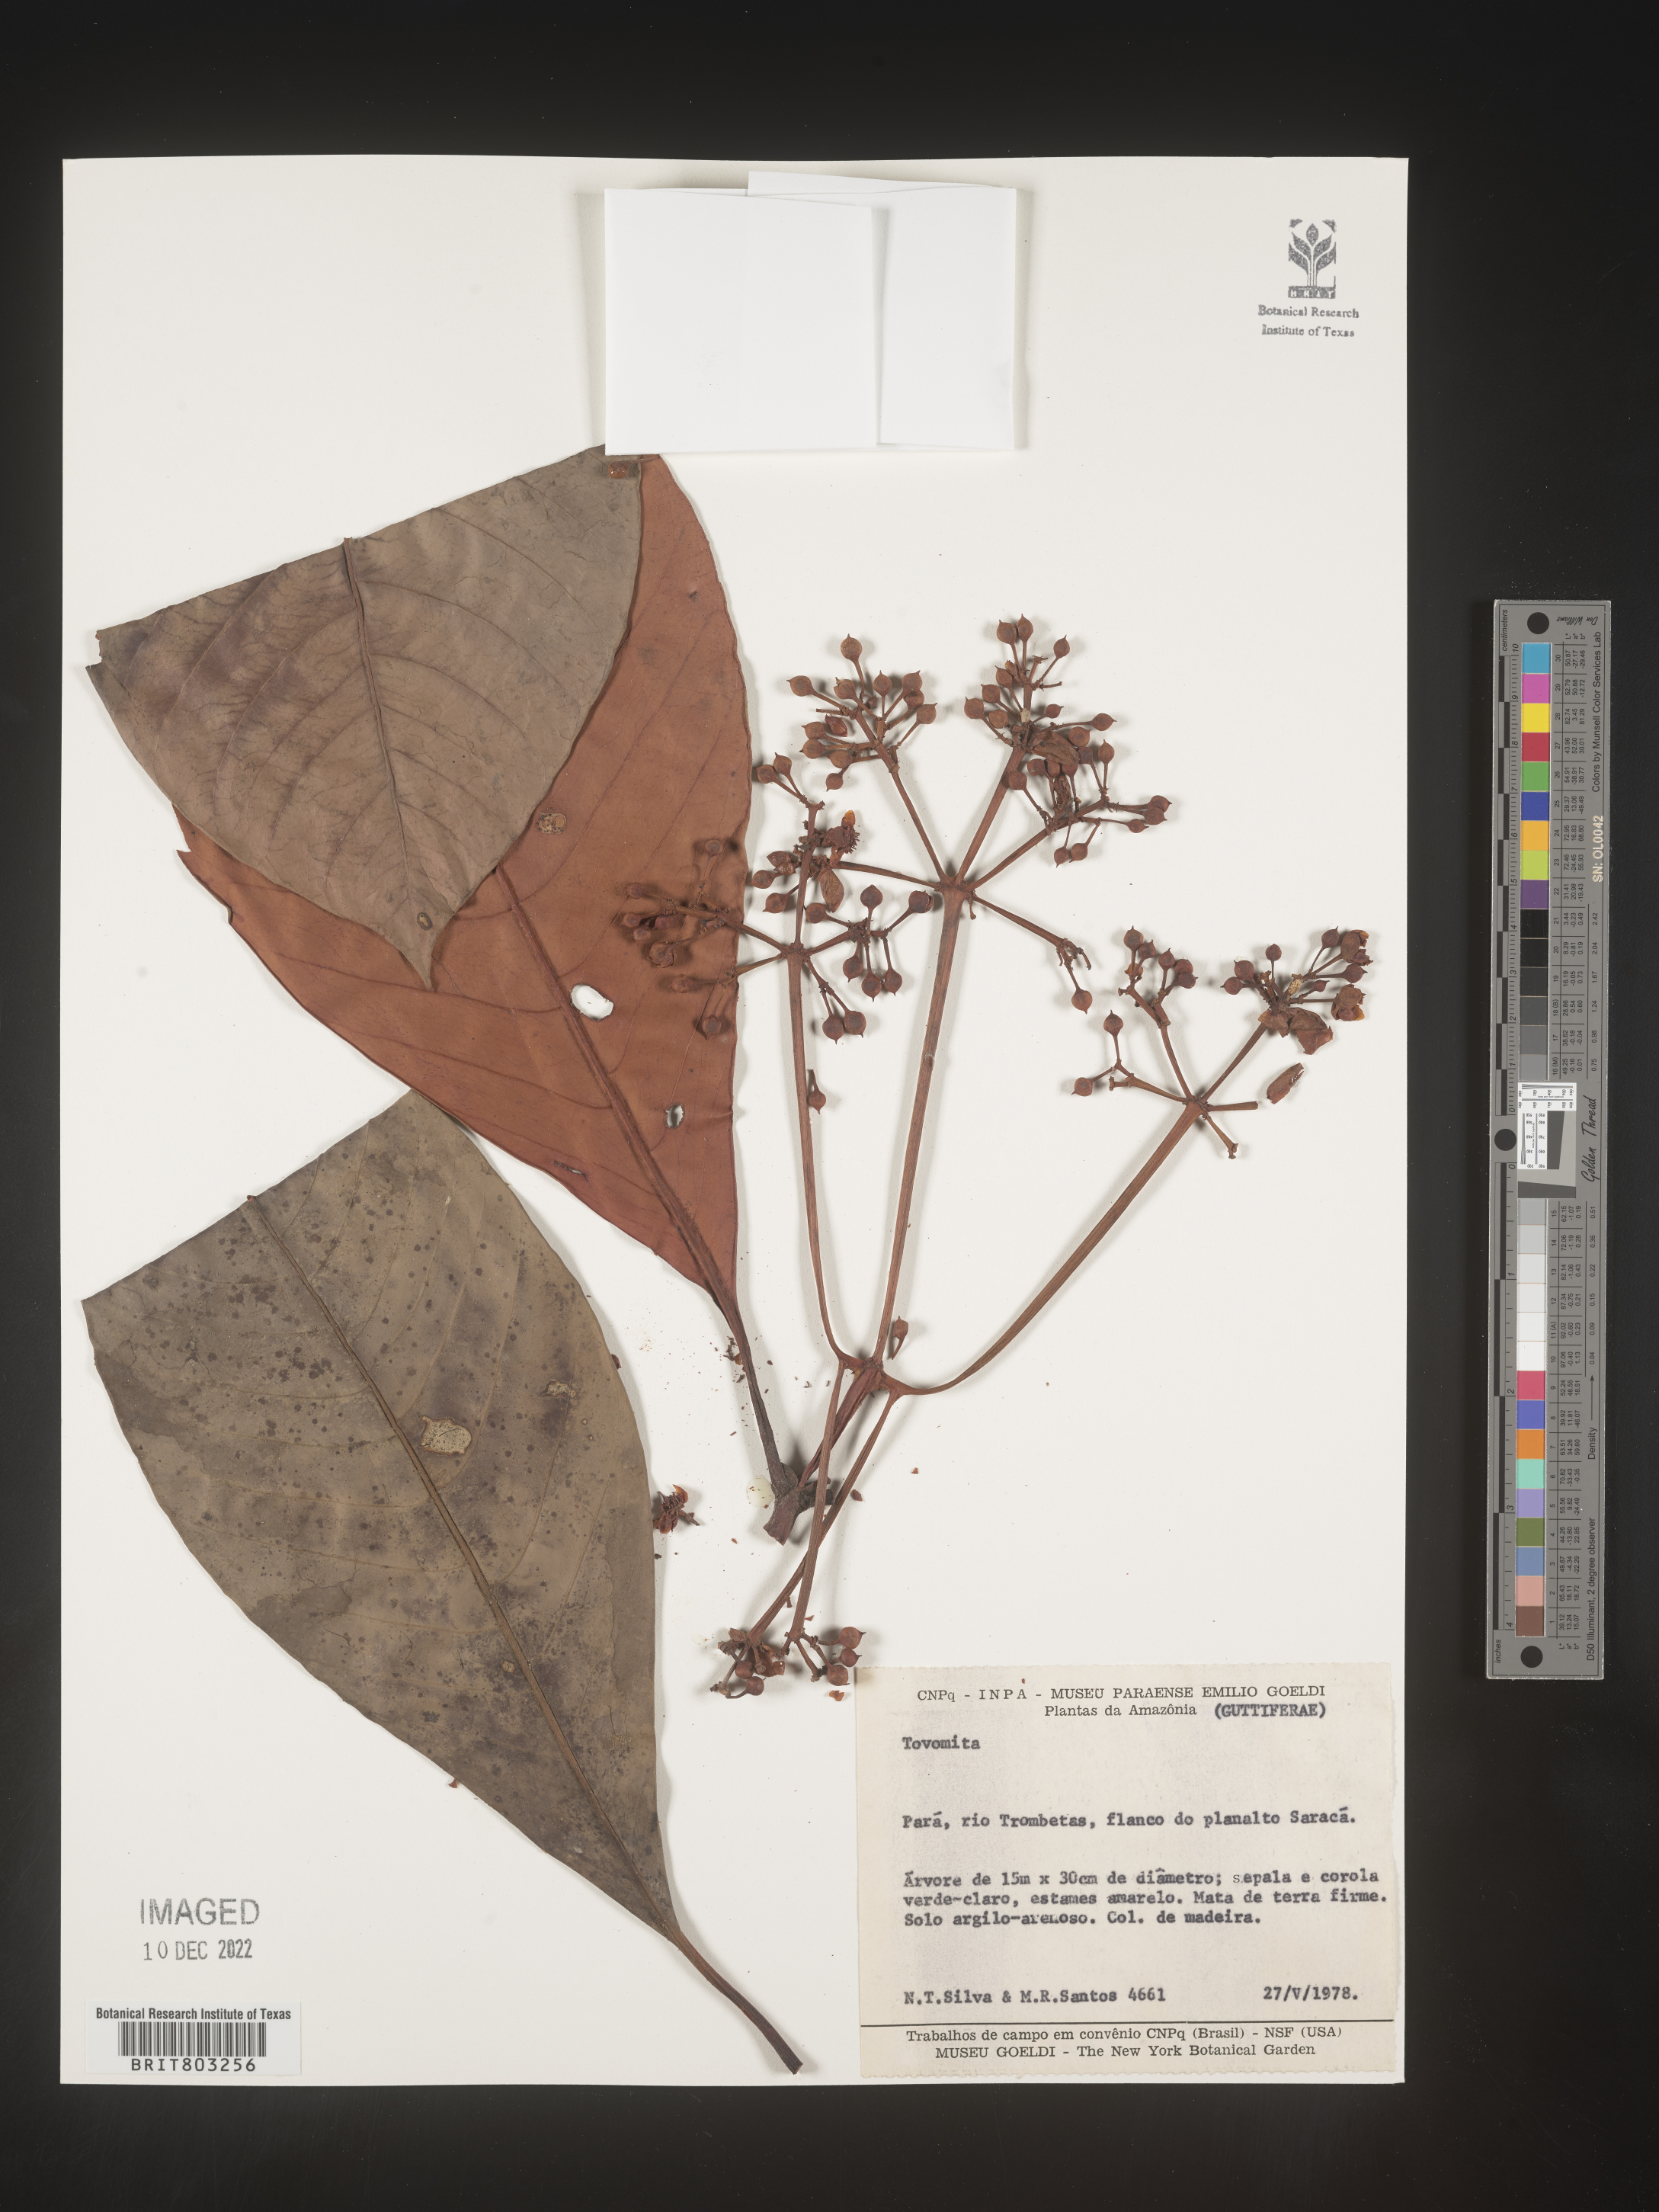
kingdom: Plantae
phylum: Tracheophyta
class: Magnoliopsida
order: Malpighiales
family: Clusiaceae
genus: Tovomita
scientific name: Tovomita
